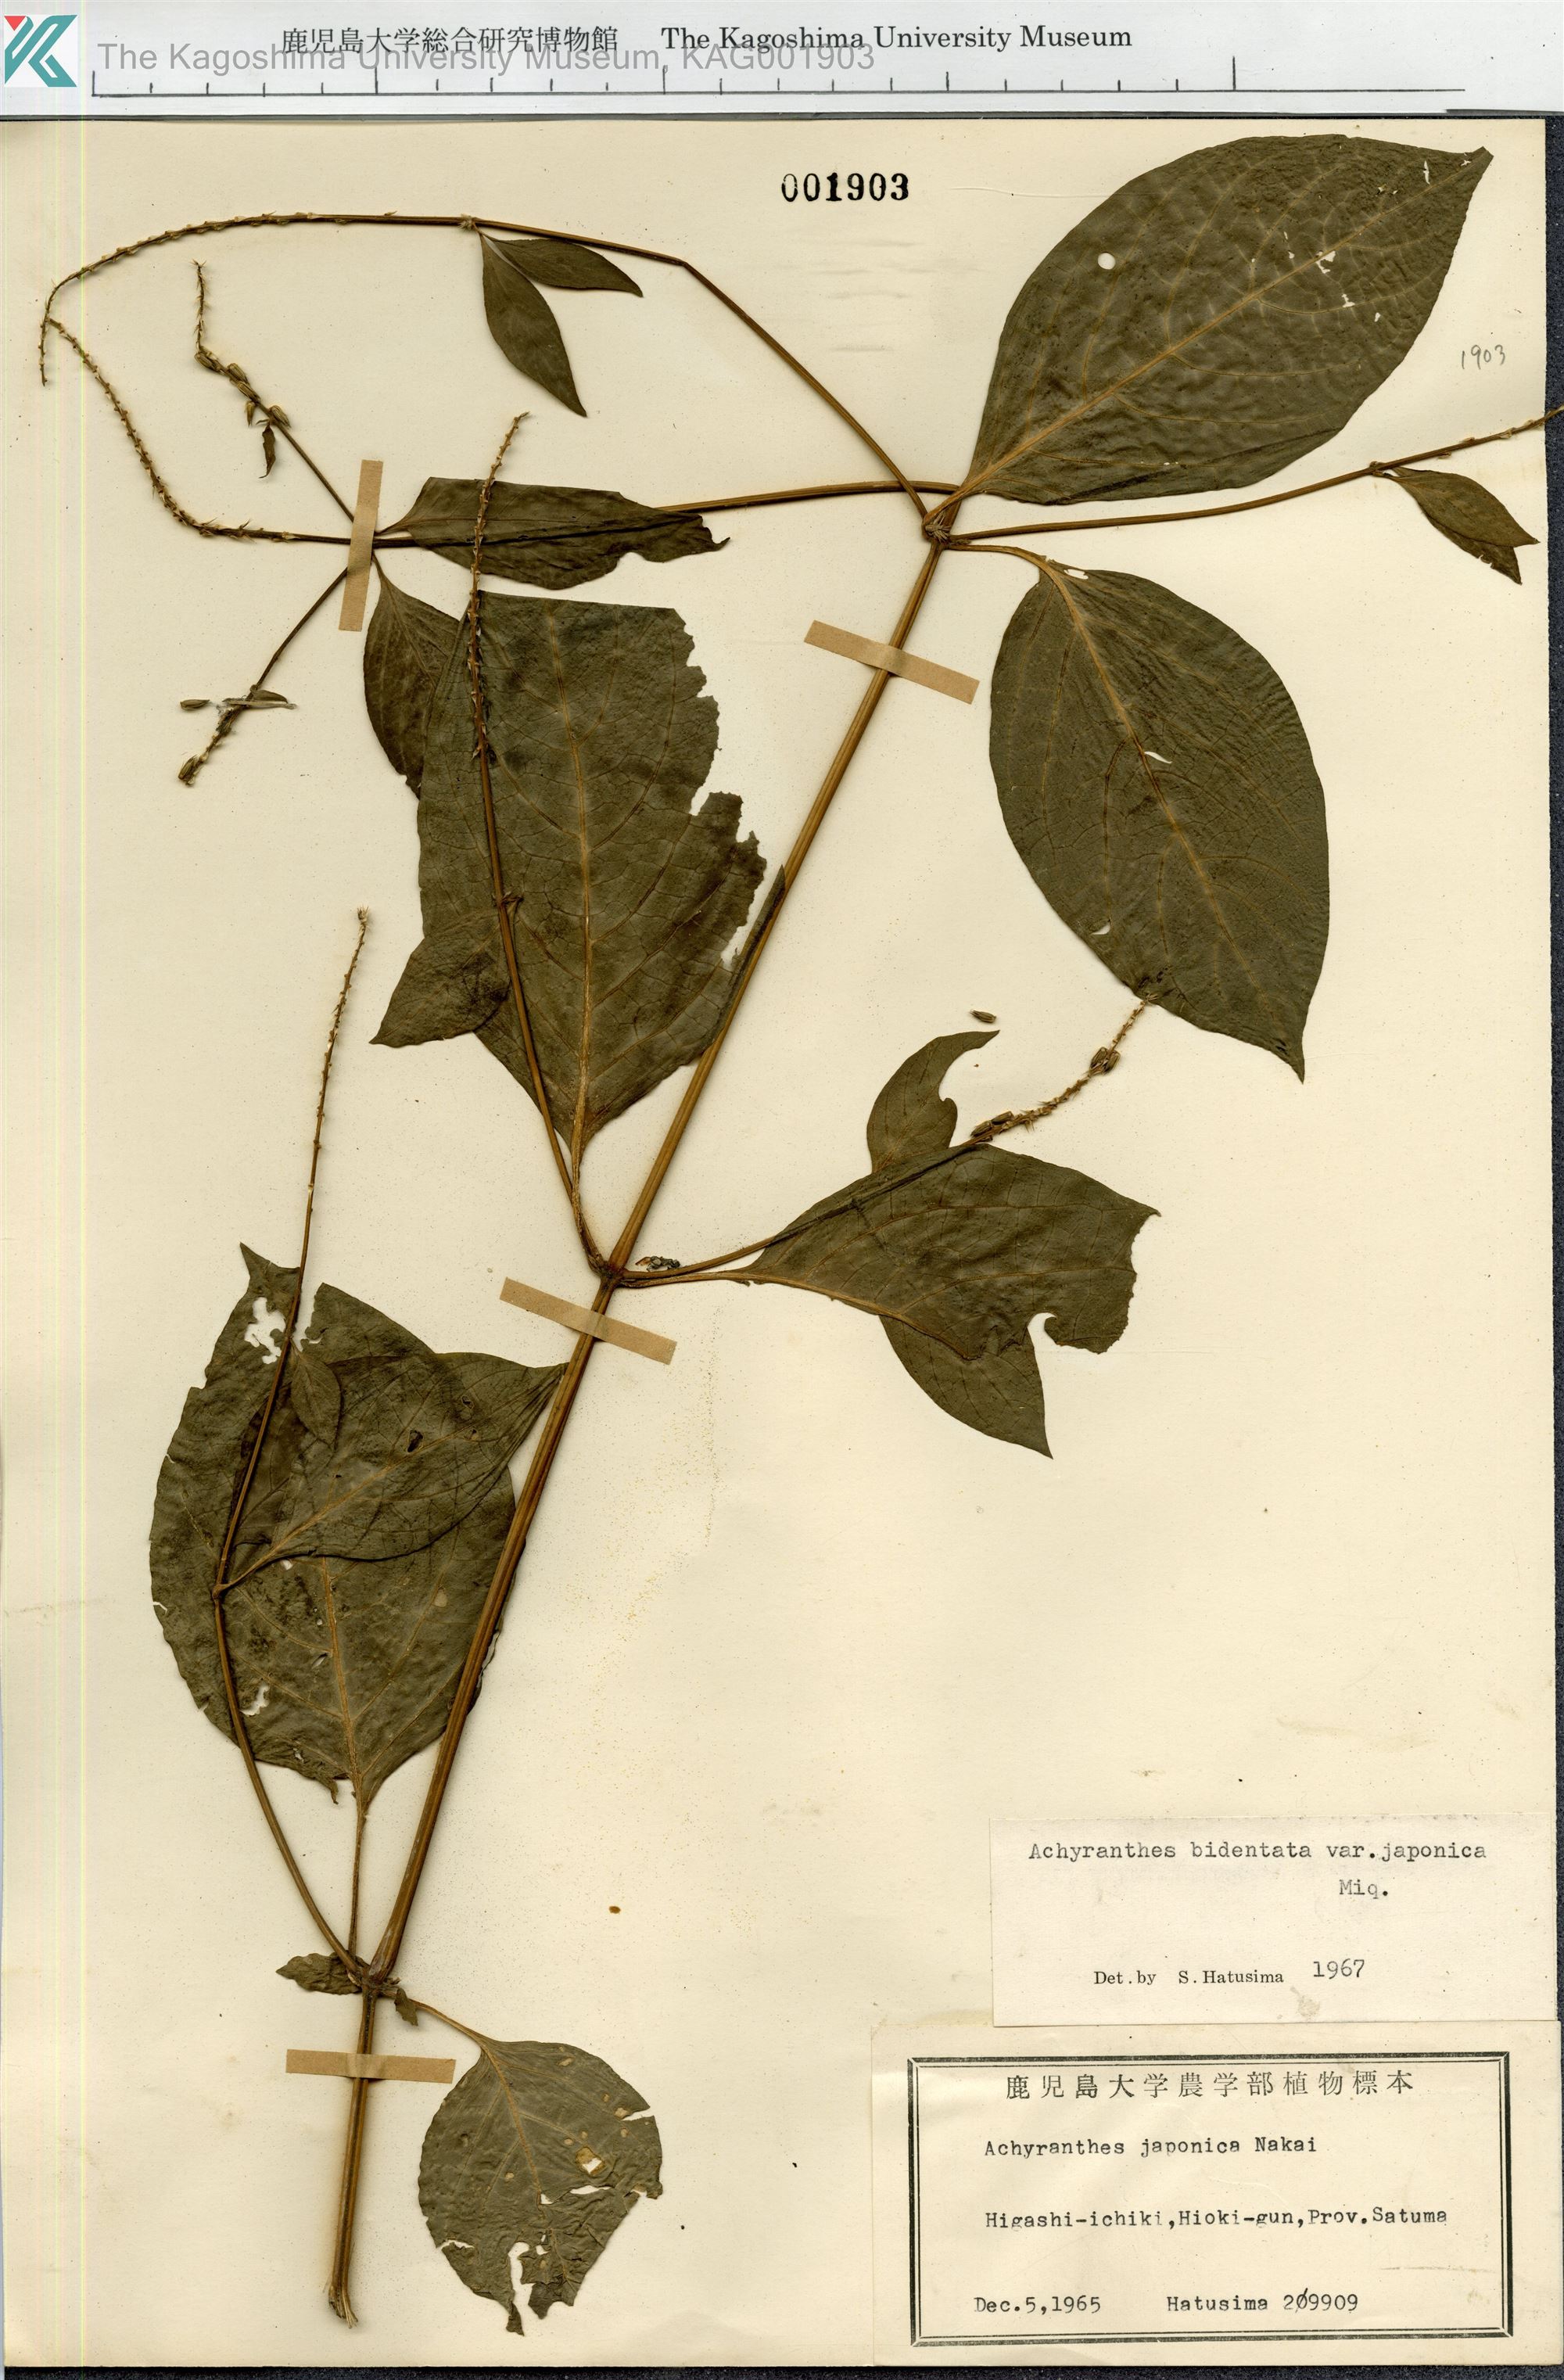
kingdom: Plantae
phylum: Tracheophyta
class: Magnoliopsida
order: Caryophyllales
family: Amaranthaceae
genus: Achyranthes
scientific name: Achyranthes bidentata
